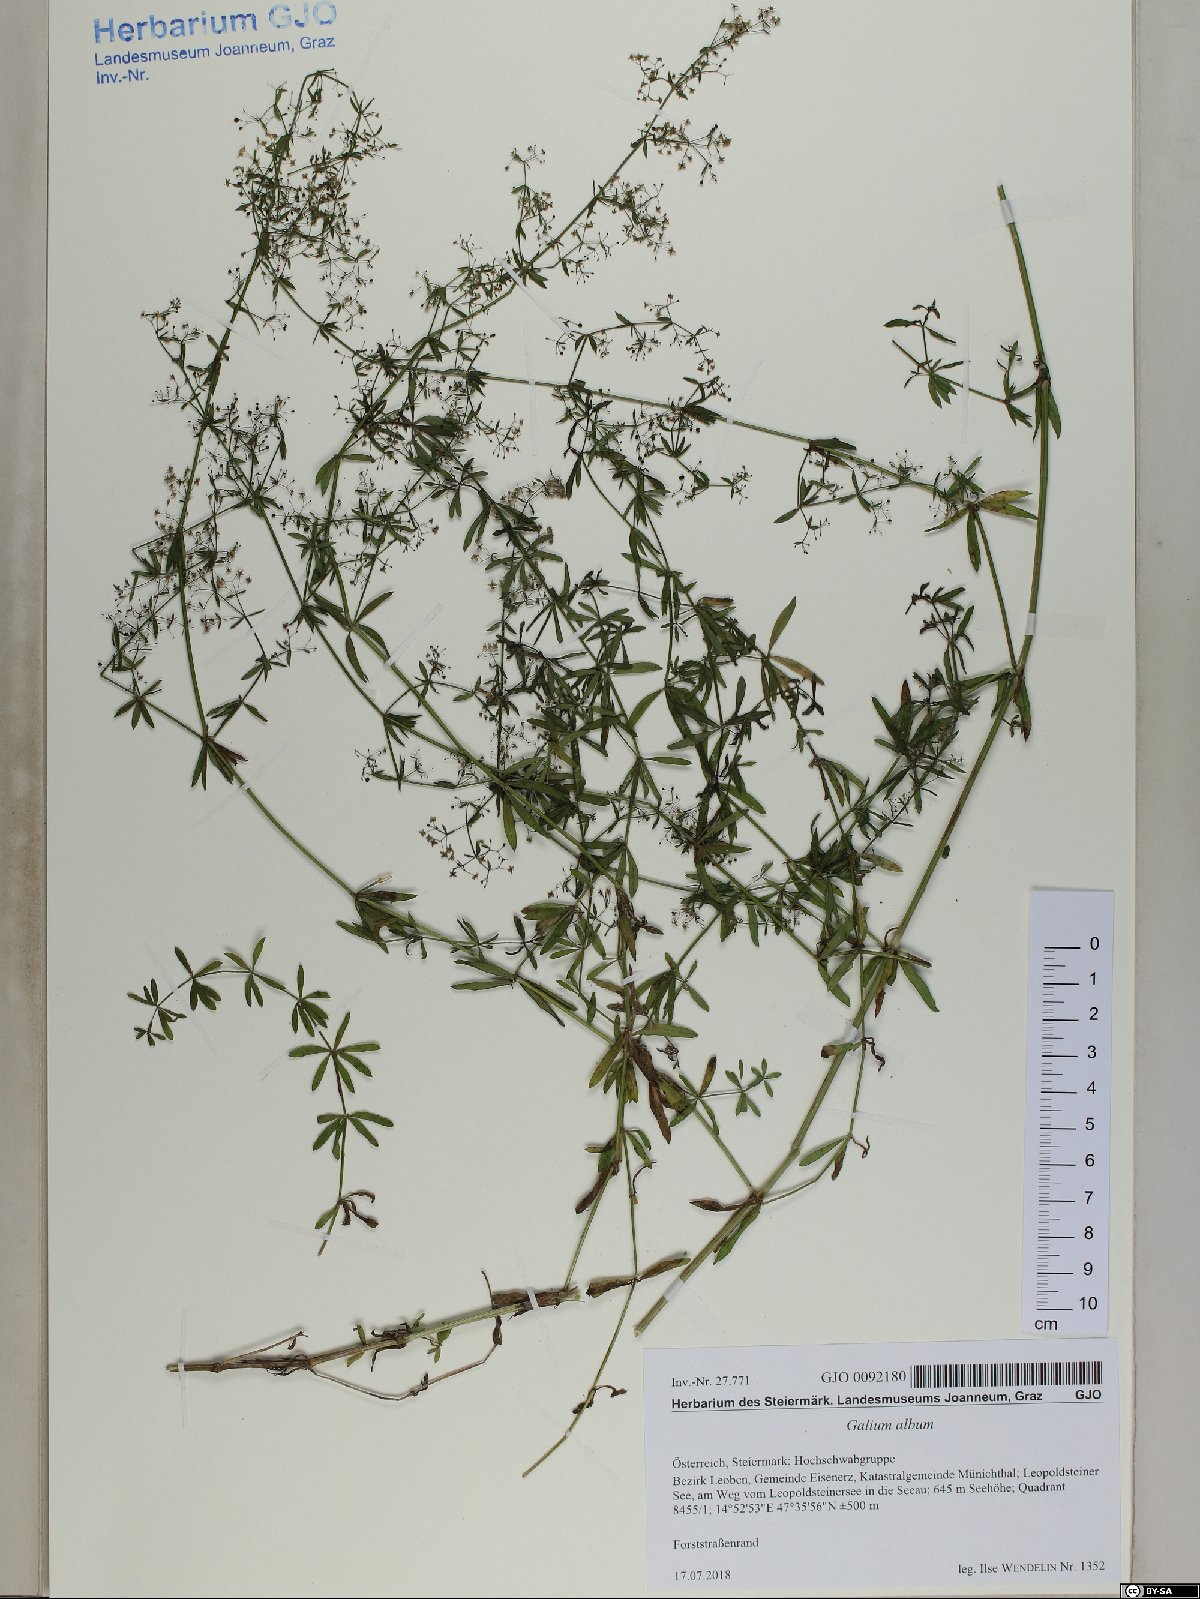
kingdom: Plantae
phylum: Tracheophyta
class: Magnoliopsida
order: Gentianales
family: Rubiaceae
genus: Galium
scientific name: Galium album
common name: White bedstraw
